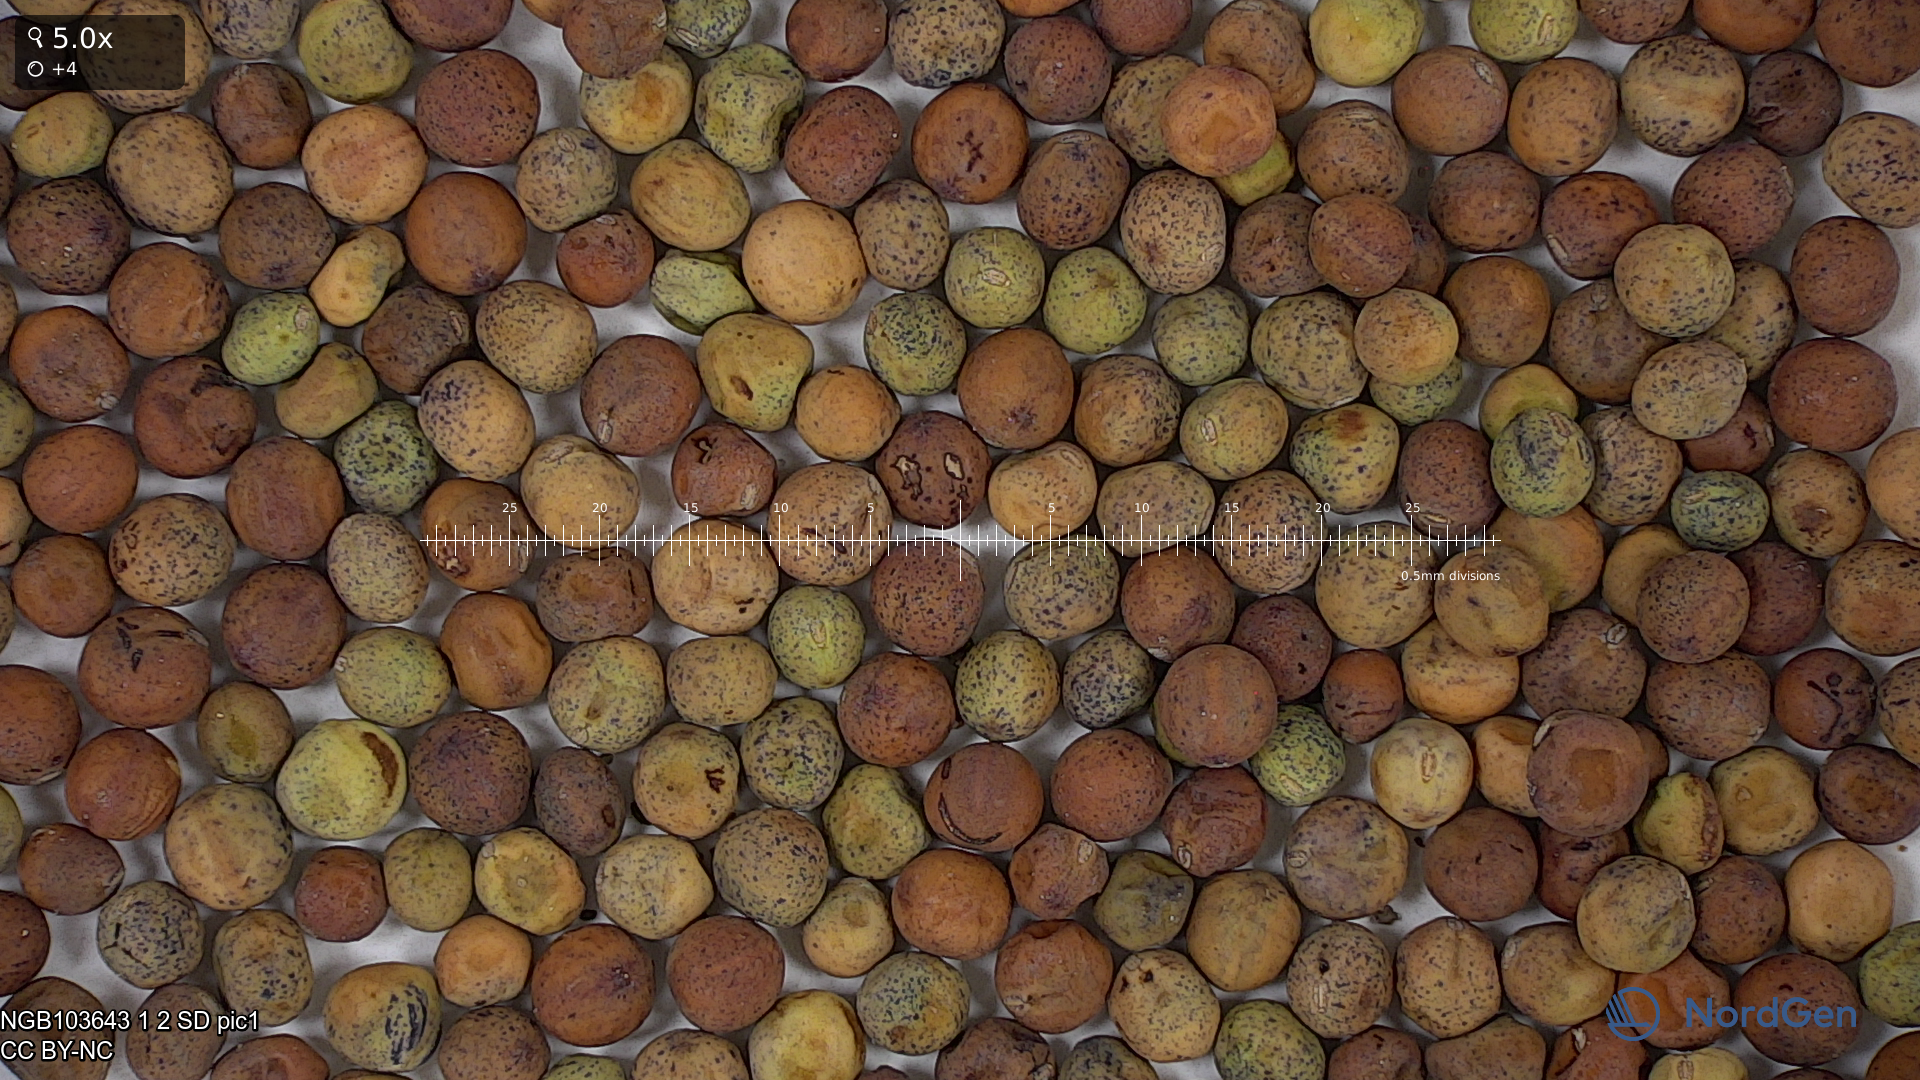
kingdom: Plantae
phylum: Tracheophyta
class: Magnoliopsida
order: Fabales
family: Fabaceae
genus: Lathyrus
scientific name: Lathyrus oleraceus
